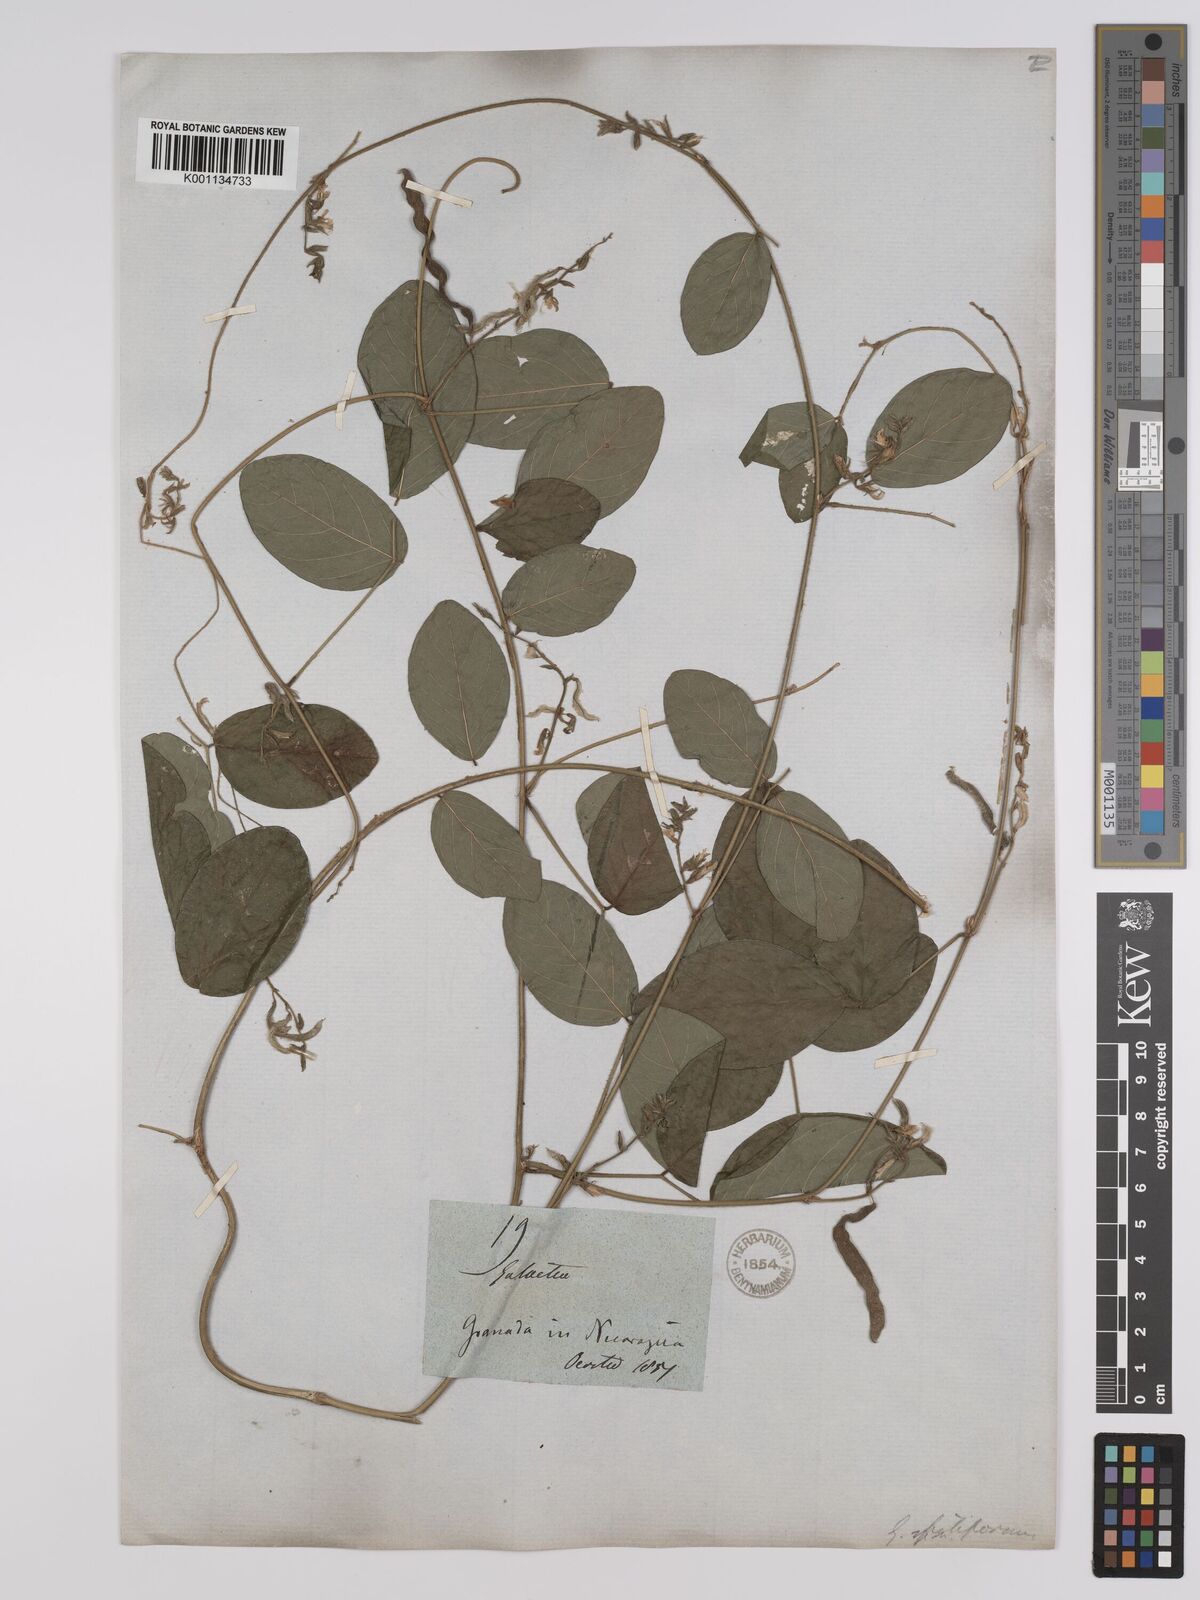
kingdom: Plantae
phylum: Tracheophyta
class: Magnoliopsida
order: Fabales
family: Fabaceae
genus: Galactia
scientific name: Galactia striata
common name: Florida hammock milkpea
